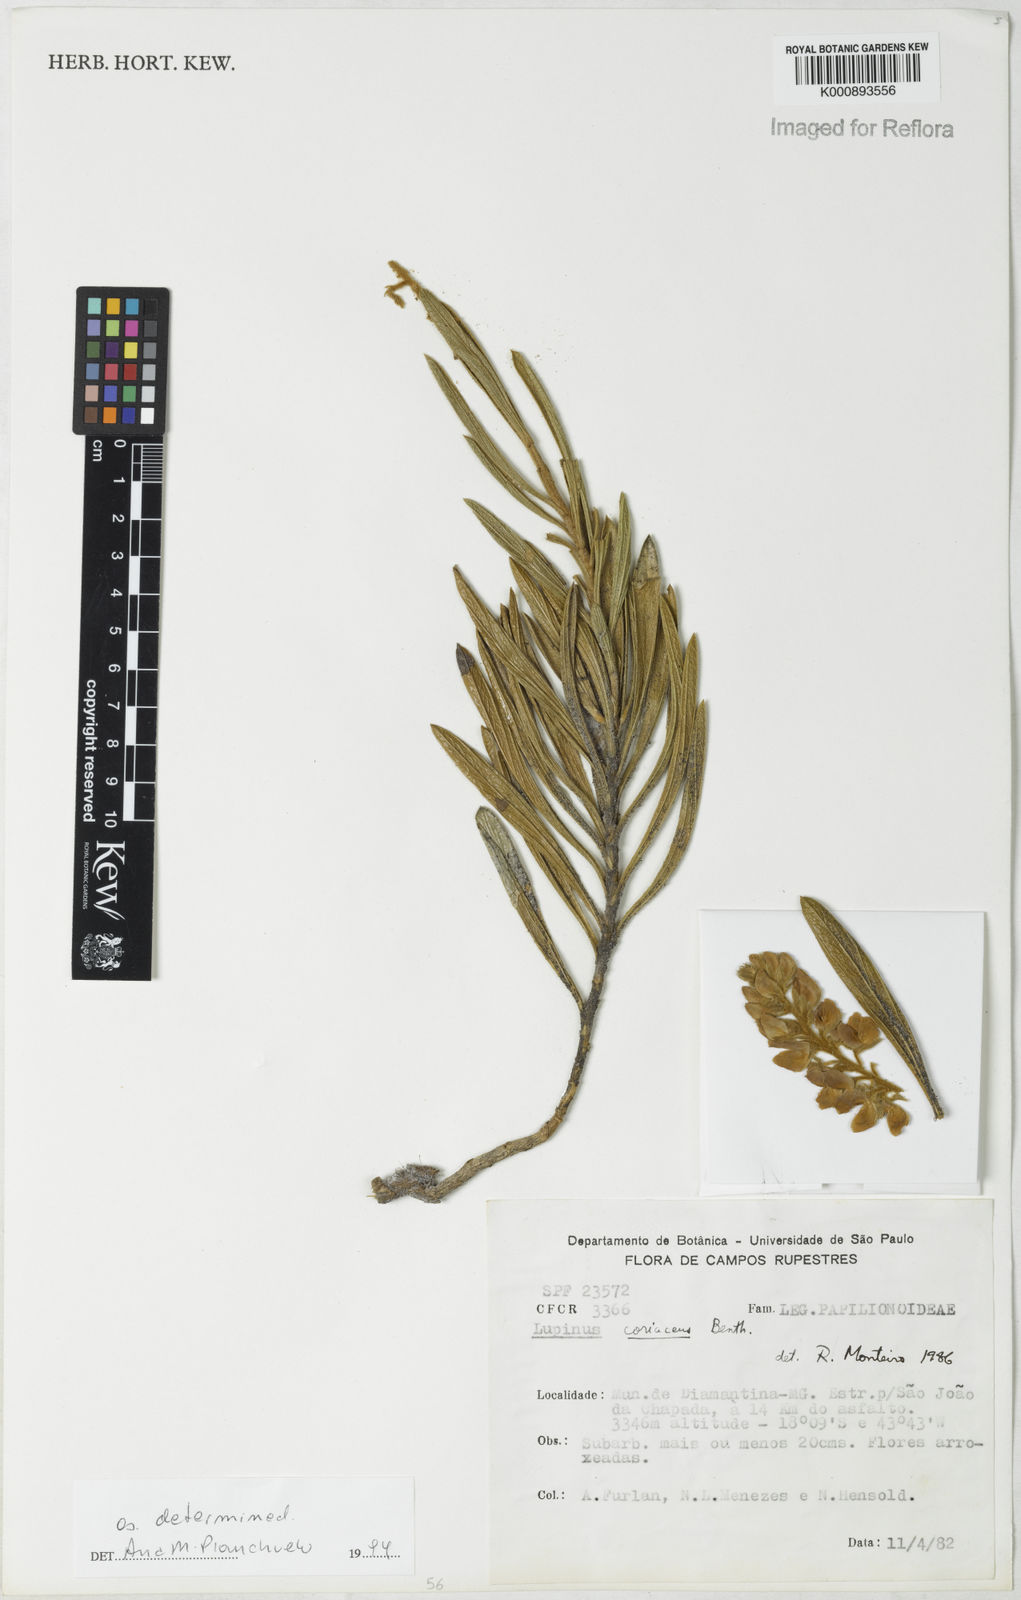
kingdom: Plantae
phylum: Tracheophyta
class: Magnoliopsida
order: Fabales
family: Fabaceae
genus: Lupinus
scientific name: Lupinus coriaceus
